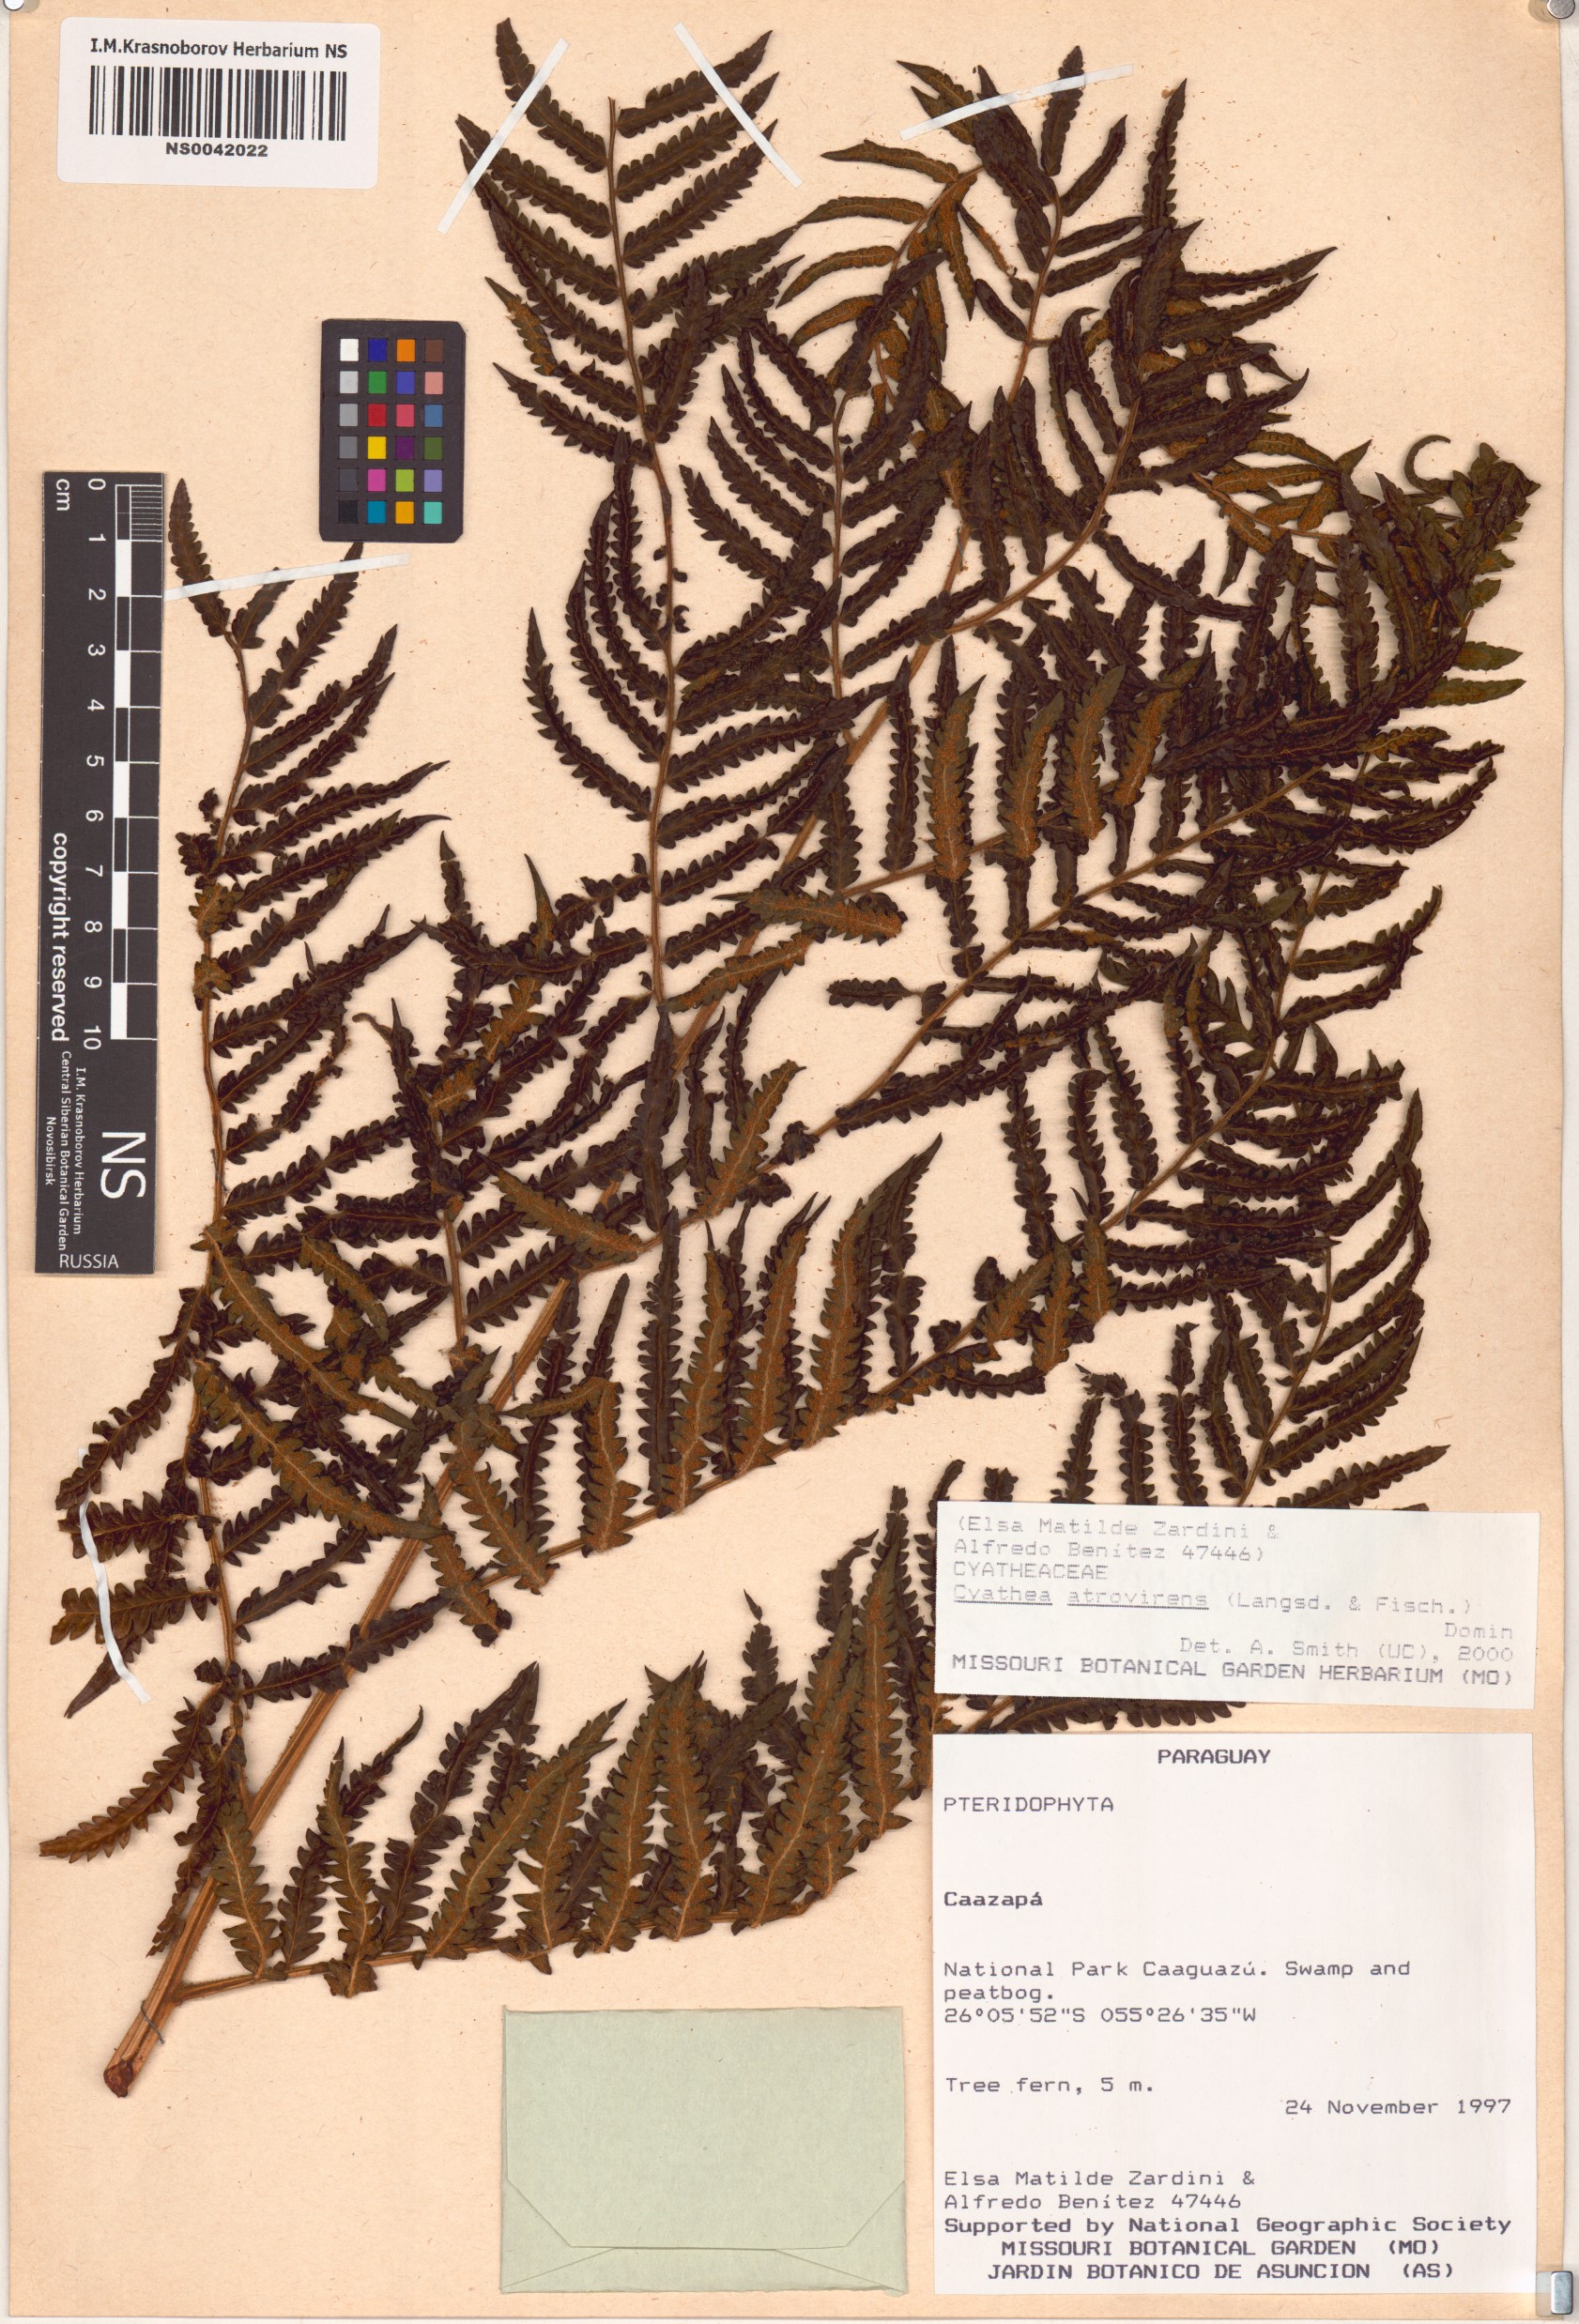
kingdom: Plantae
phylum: Tracheophyta
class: Polypodiopsida
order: Cyatheales
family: Cyatheaceae
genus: Cyathea
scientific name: Cyathea atrovirens
